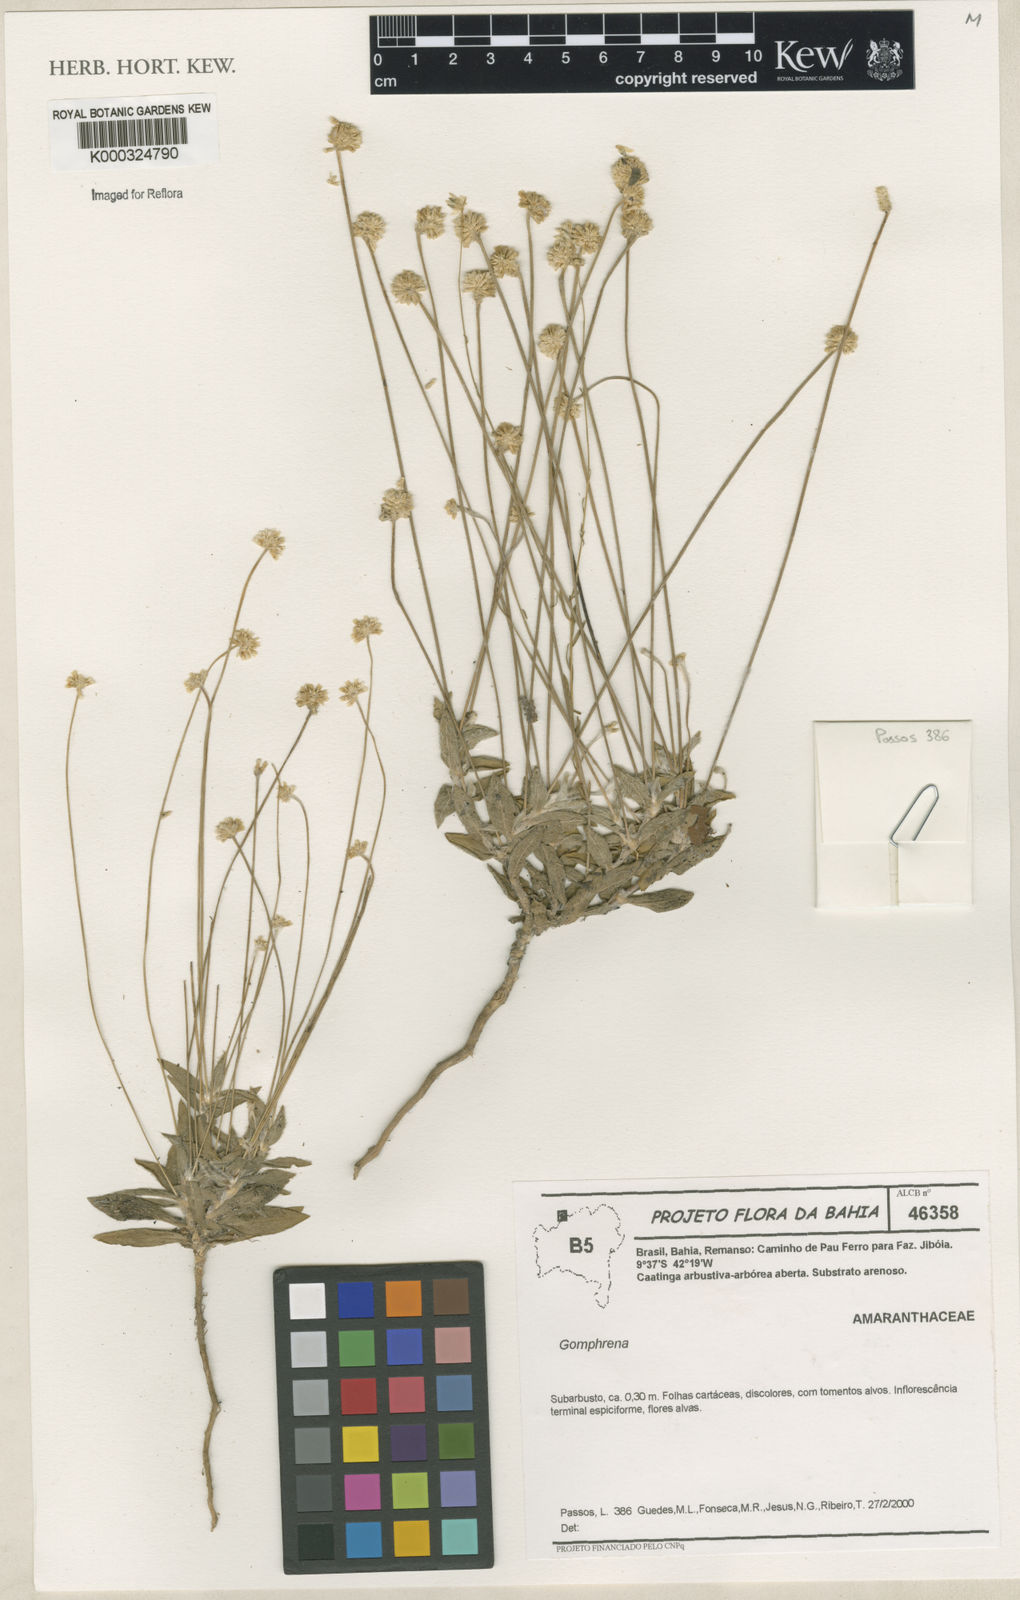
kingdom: Plantae
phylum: Tracheophyta
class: Magnoliopsida
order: Caryophyllales
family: Amaranthaceae
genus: Gomphrena
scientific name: Gomphrena
